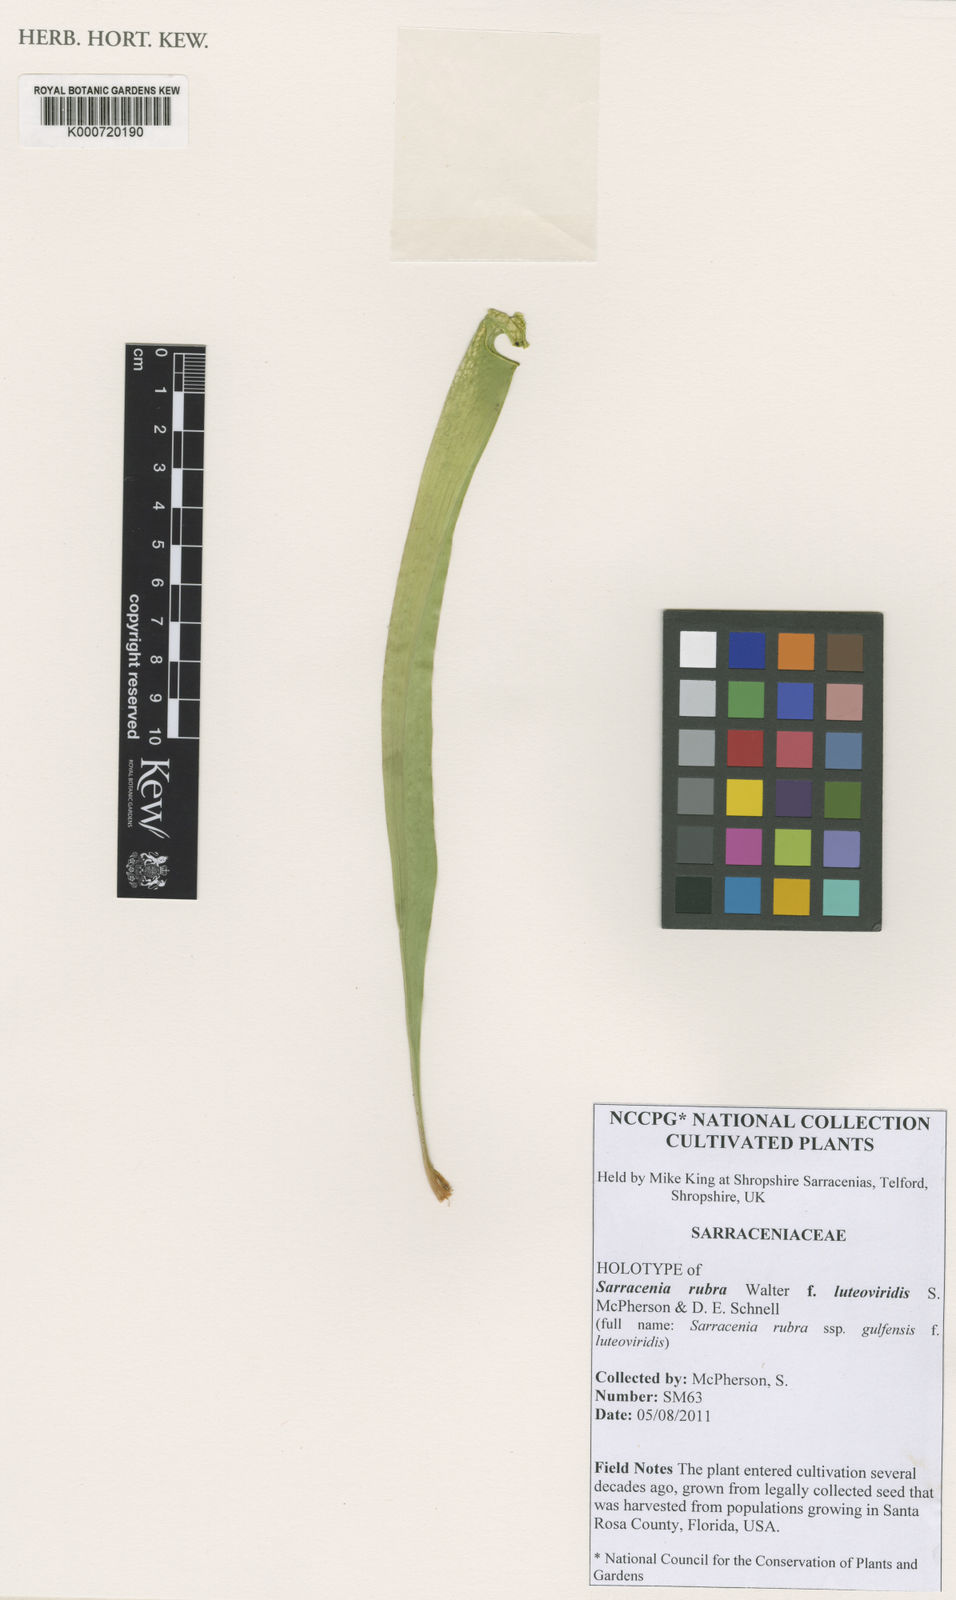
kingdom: Plantae
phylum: Tracheophyta
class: Magnoliopsida
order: Ericales
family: Sarraceniaceae
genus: Sarracenia
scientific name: Sarracenia rubra
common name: Sweet pitcherplant
